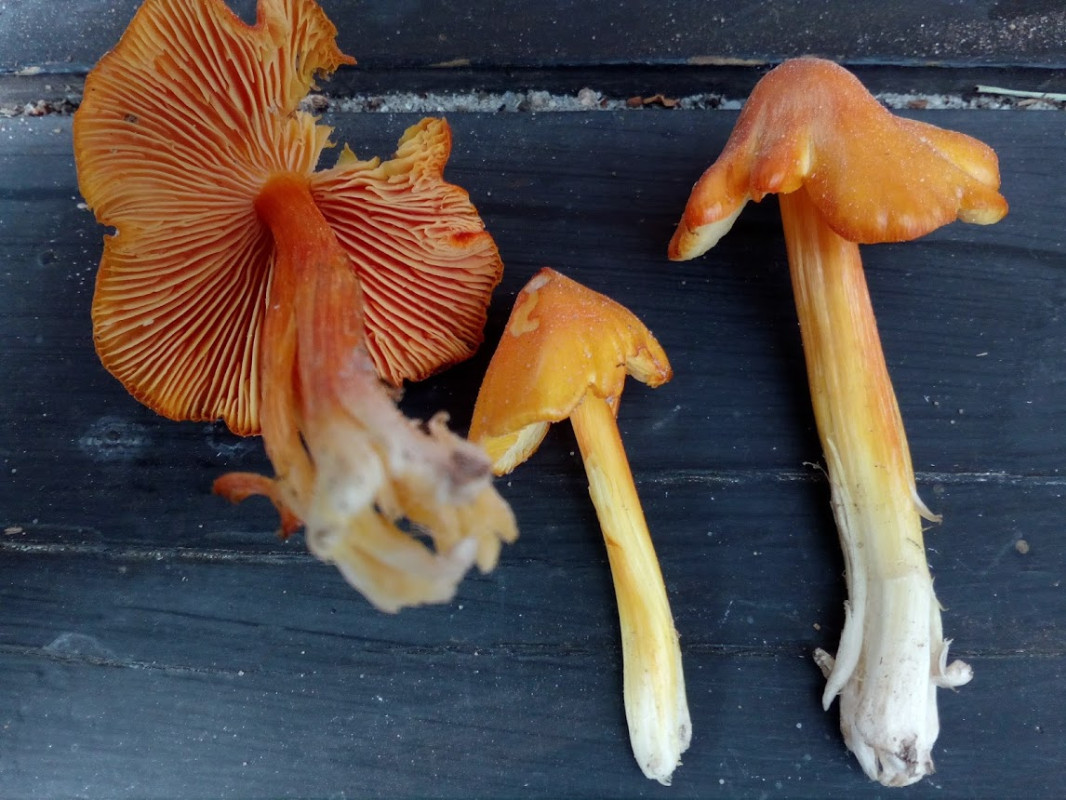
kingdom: Fungi
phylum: Basidiomycota
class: Agaricomycetes
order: Agaricales
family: Hygrophoraceae
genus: Hygrocybe
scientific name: Hygrocybe acutoconica
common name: spidspuklet vokshat
